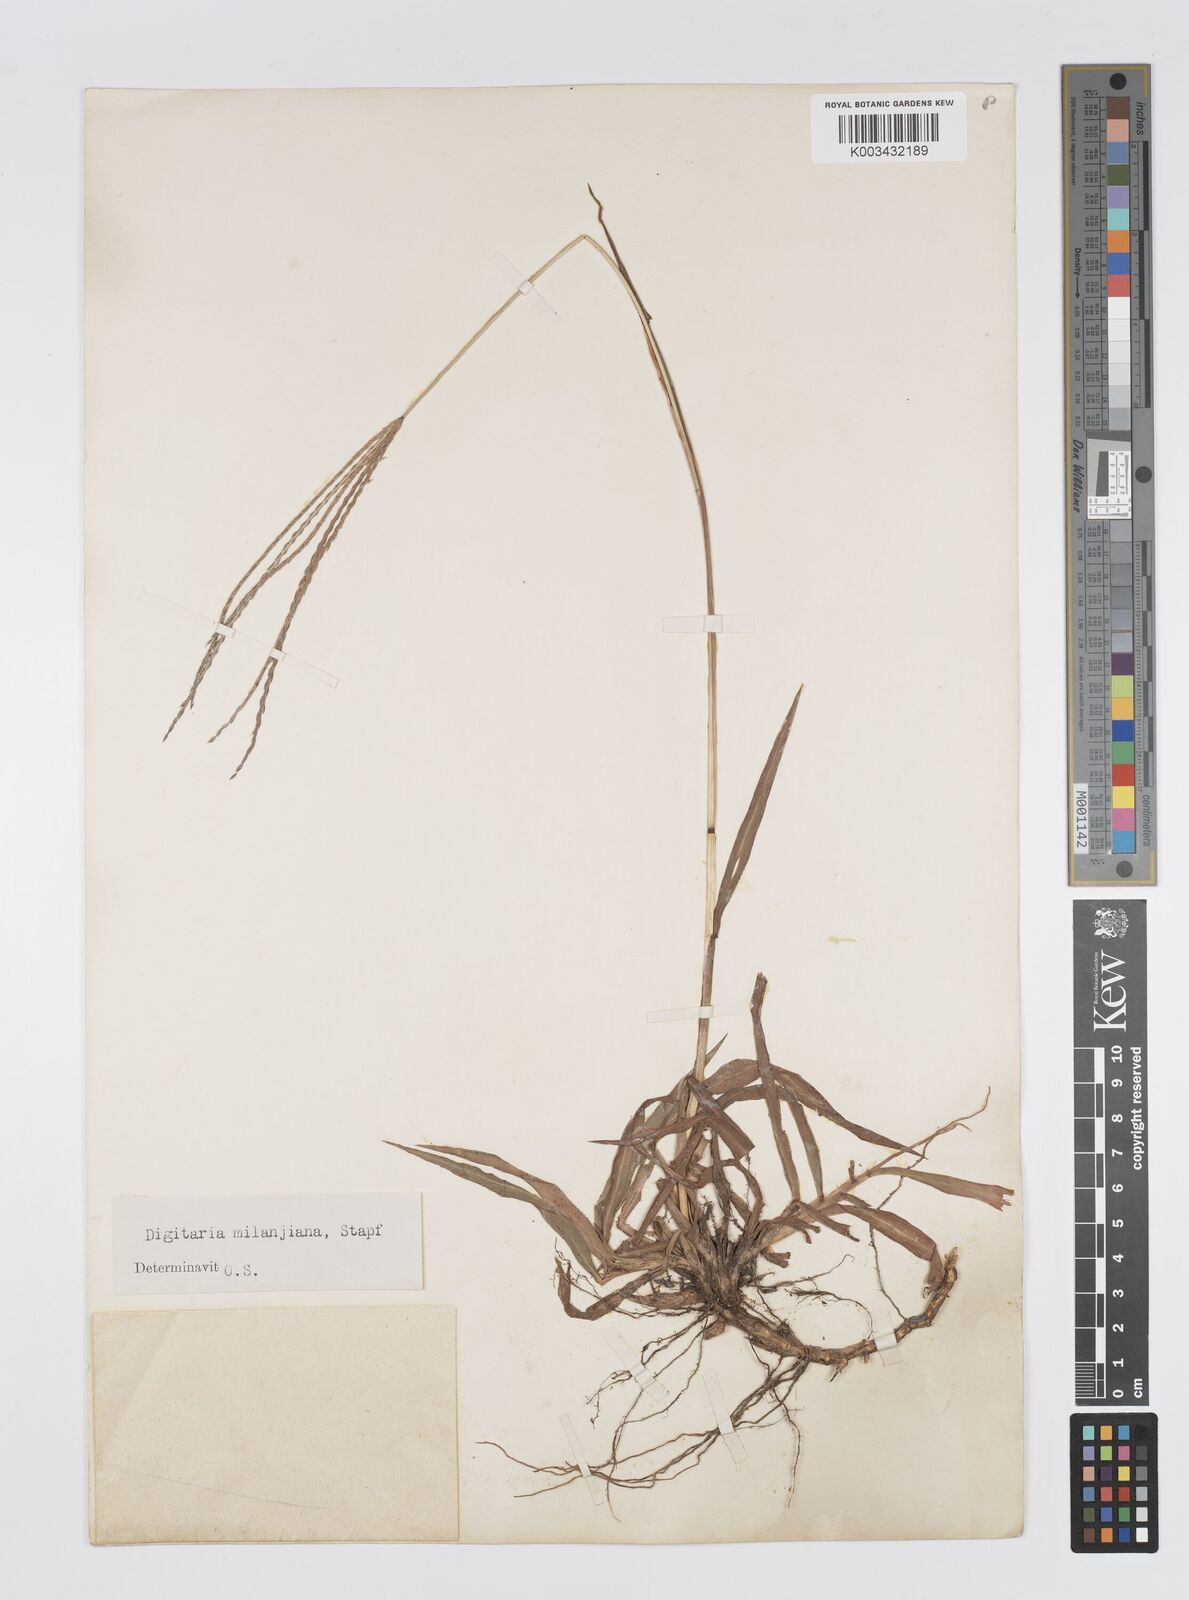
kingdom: Plantae
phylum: Tracheophyta
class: Liliopsida
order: Poales
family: Poaceae
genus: Digitaria
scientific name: Digitaria milanjiana
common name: Madagascar crabgrass
